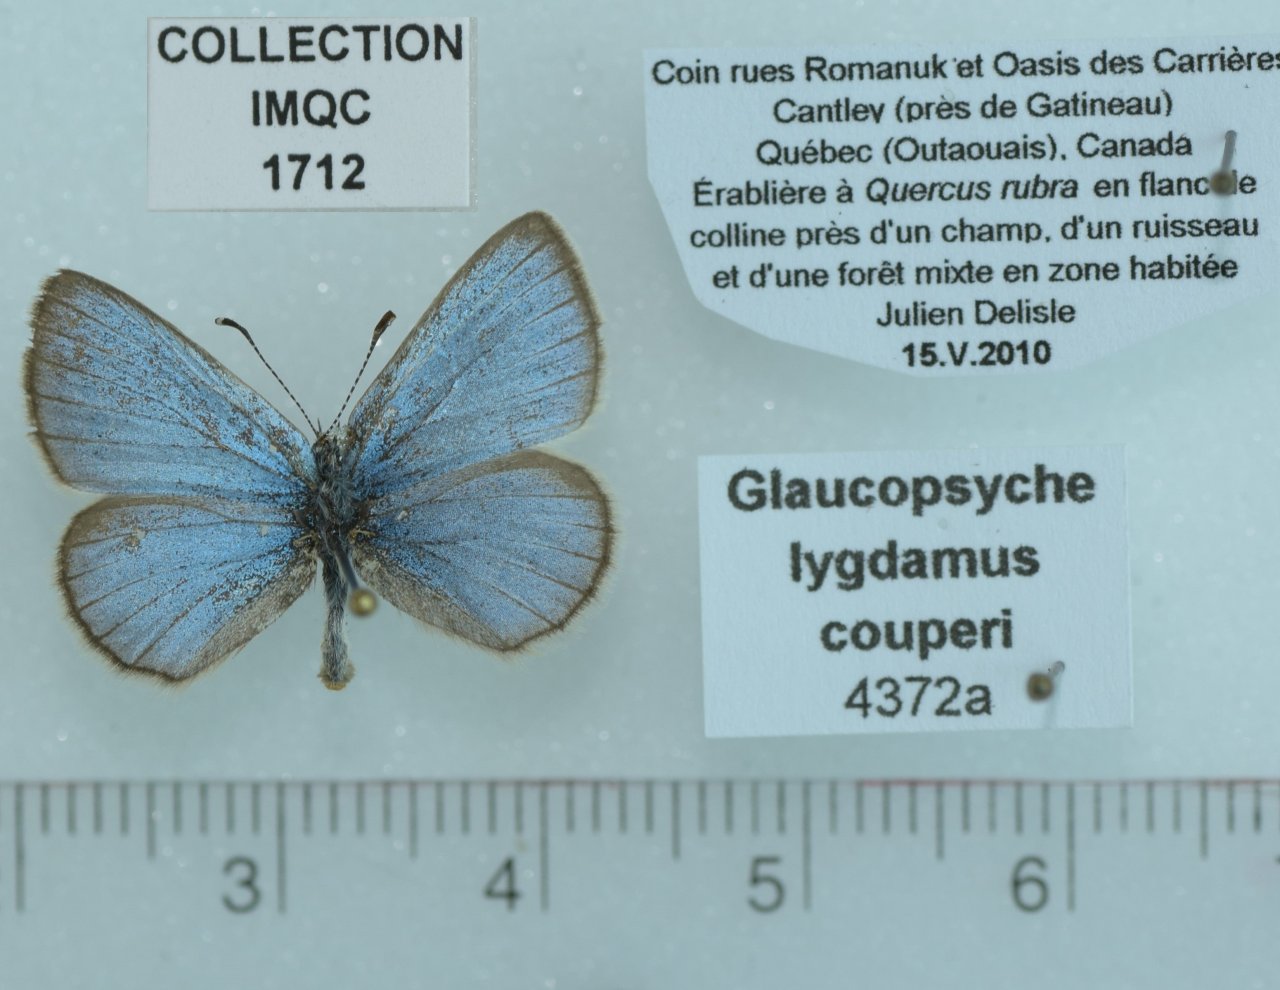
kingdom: Animalia
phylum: Arthropoda
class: Insecta
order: Lepidoptera
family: Lycaenidae
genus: Glaucopsyche
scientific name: Glaucopsyche lygdamus
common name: Silvery Blue
